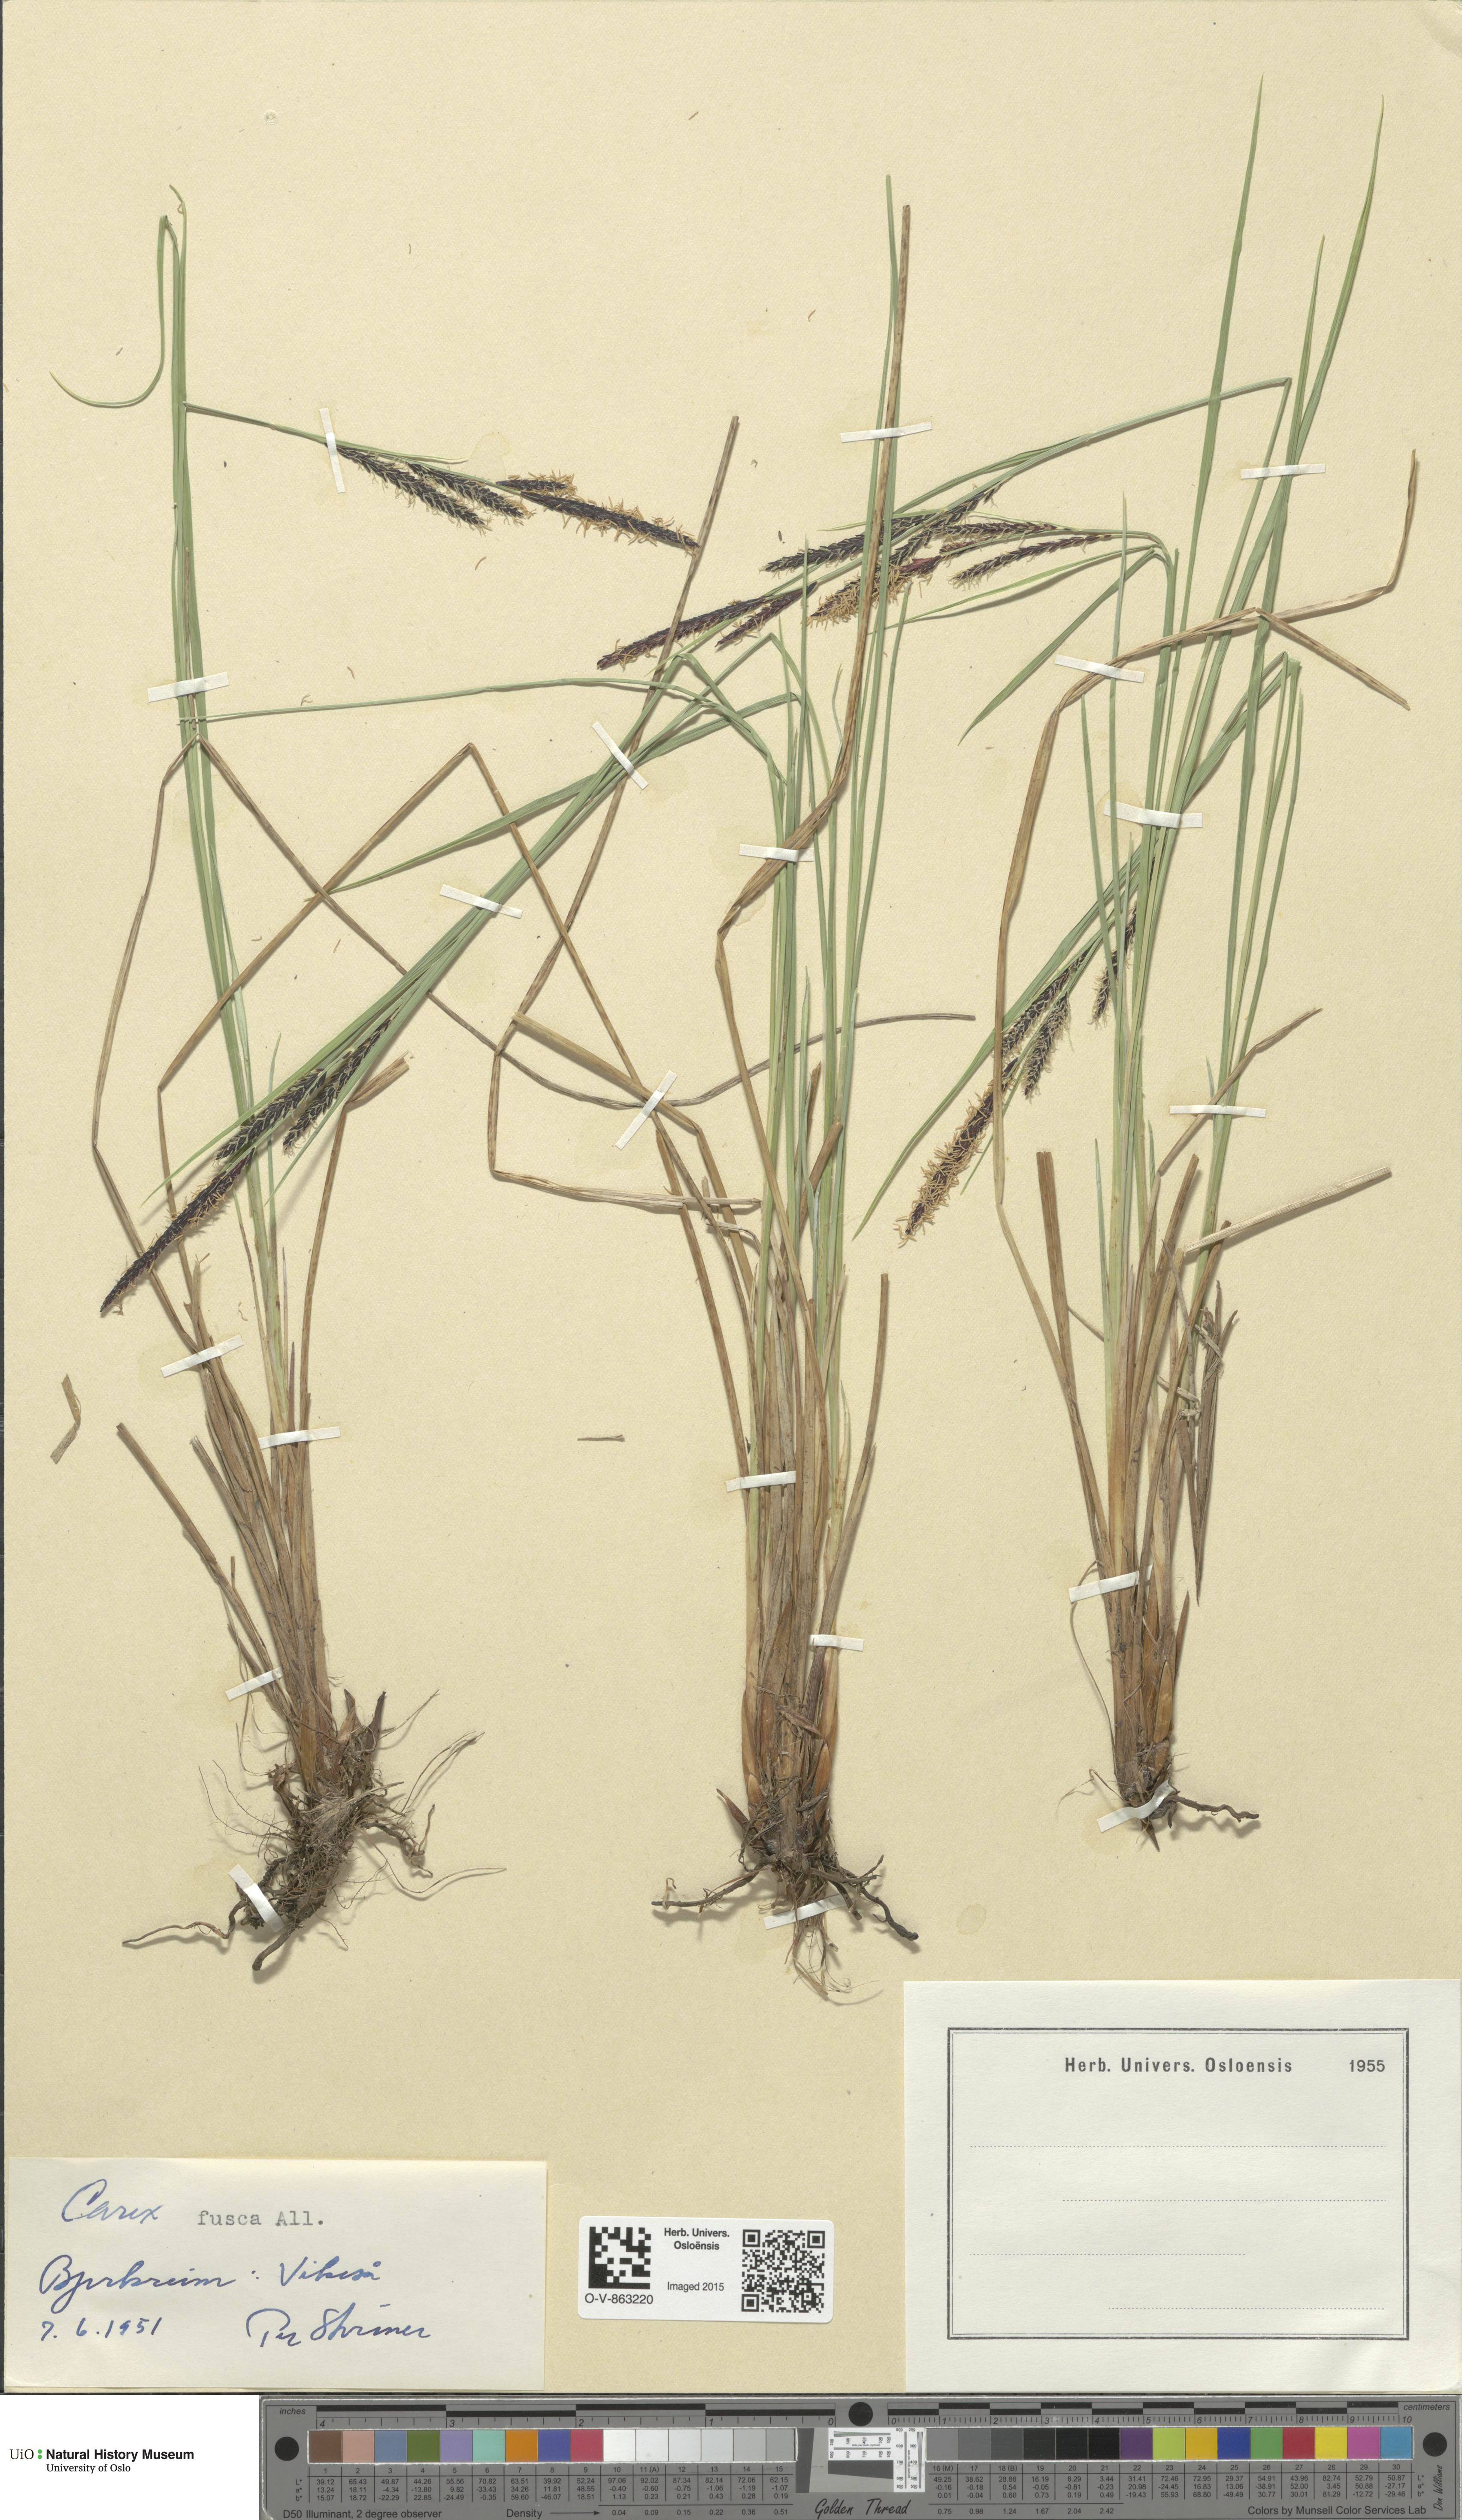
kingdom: Plantae
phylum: Tracheophyta
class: Liliopsida
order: Poales
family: Cyperaceae
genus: Carex
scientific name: Carex nigra
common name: Common sedge
